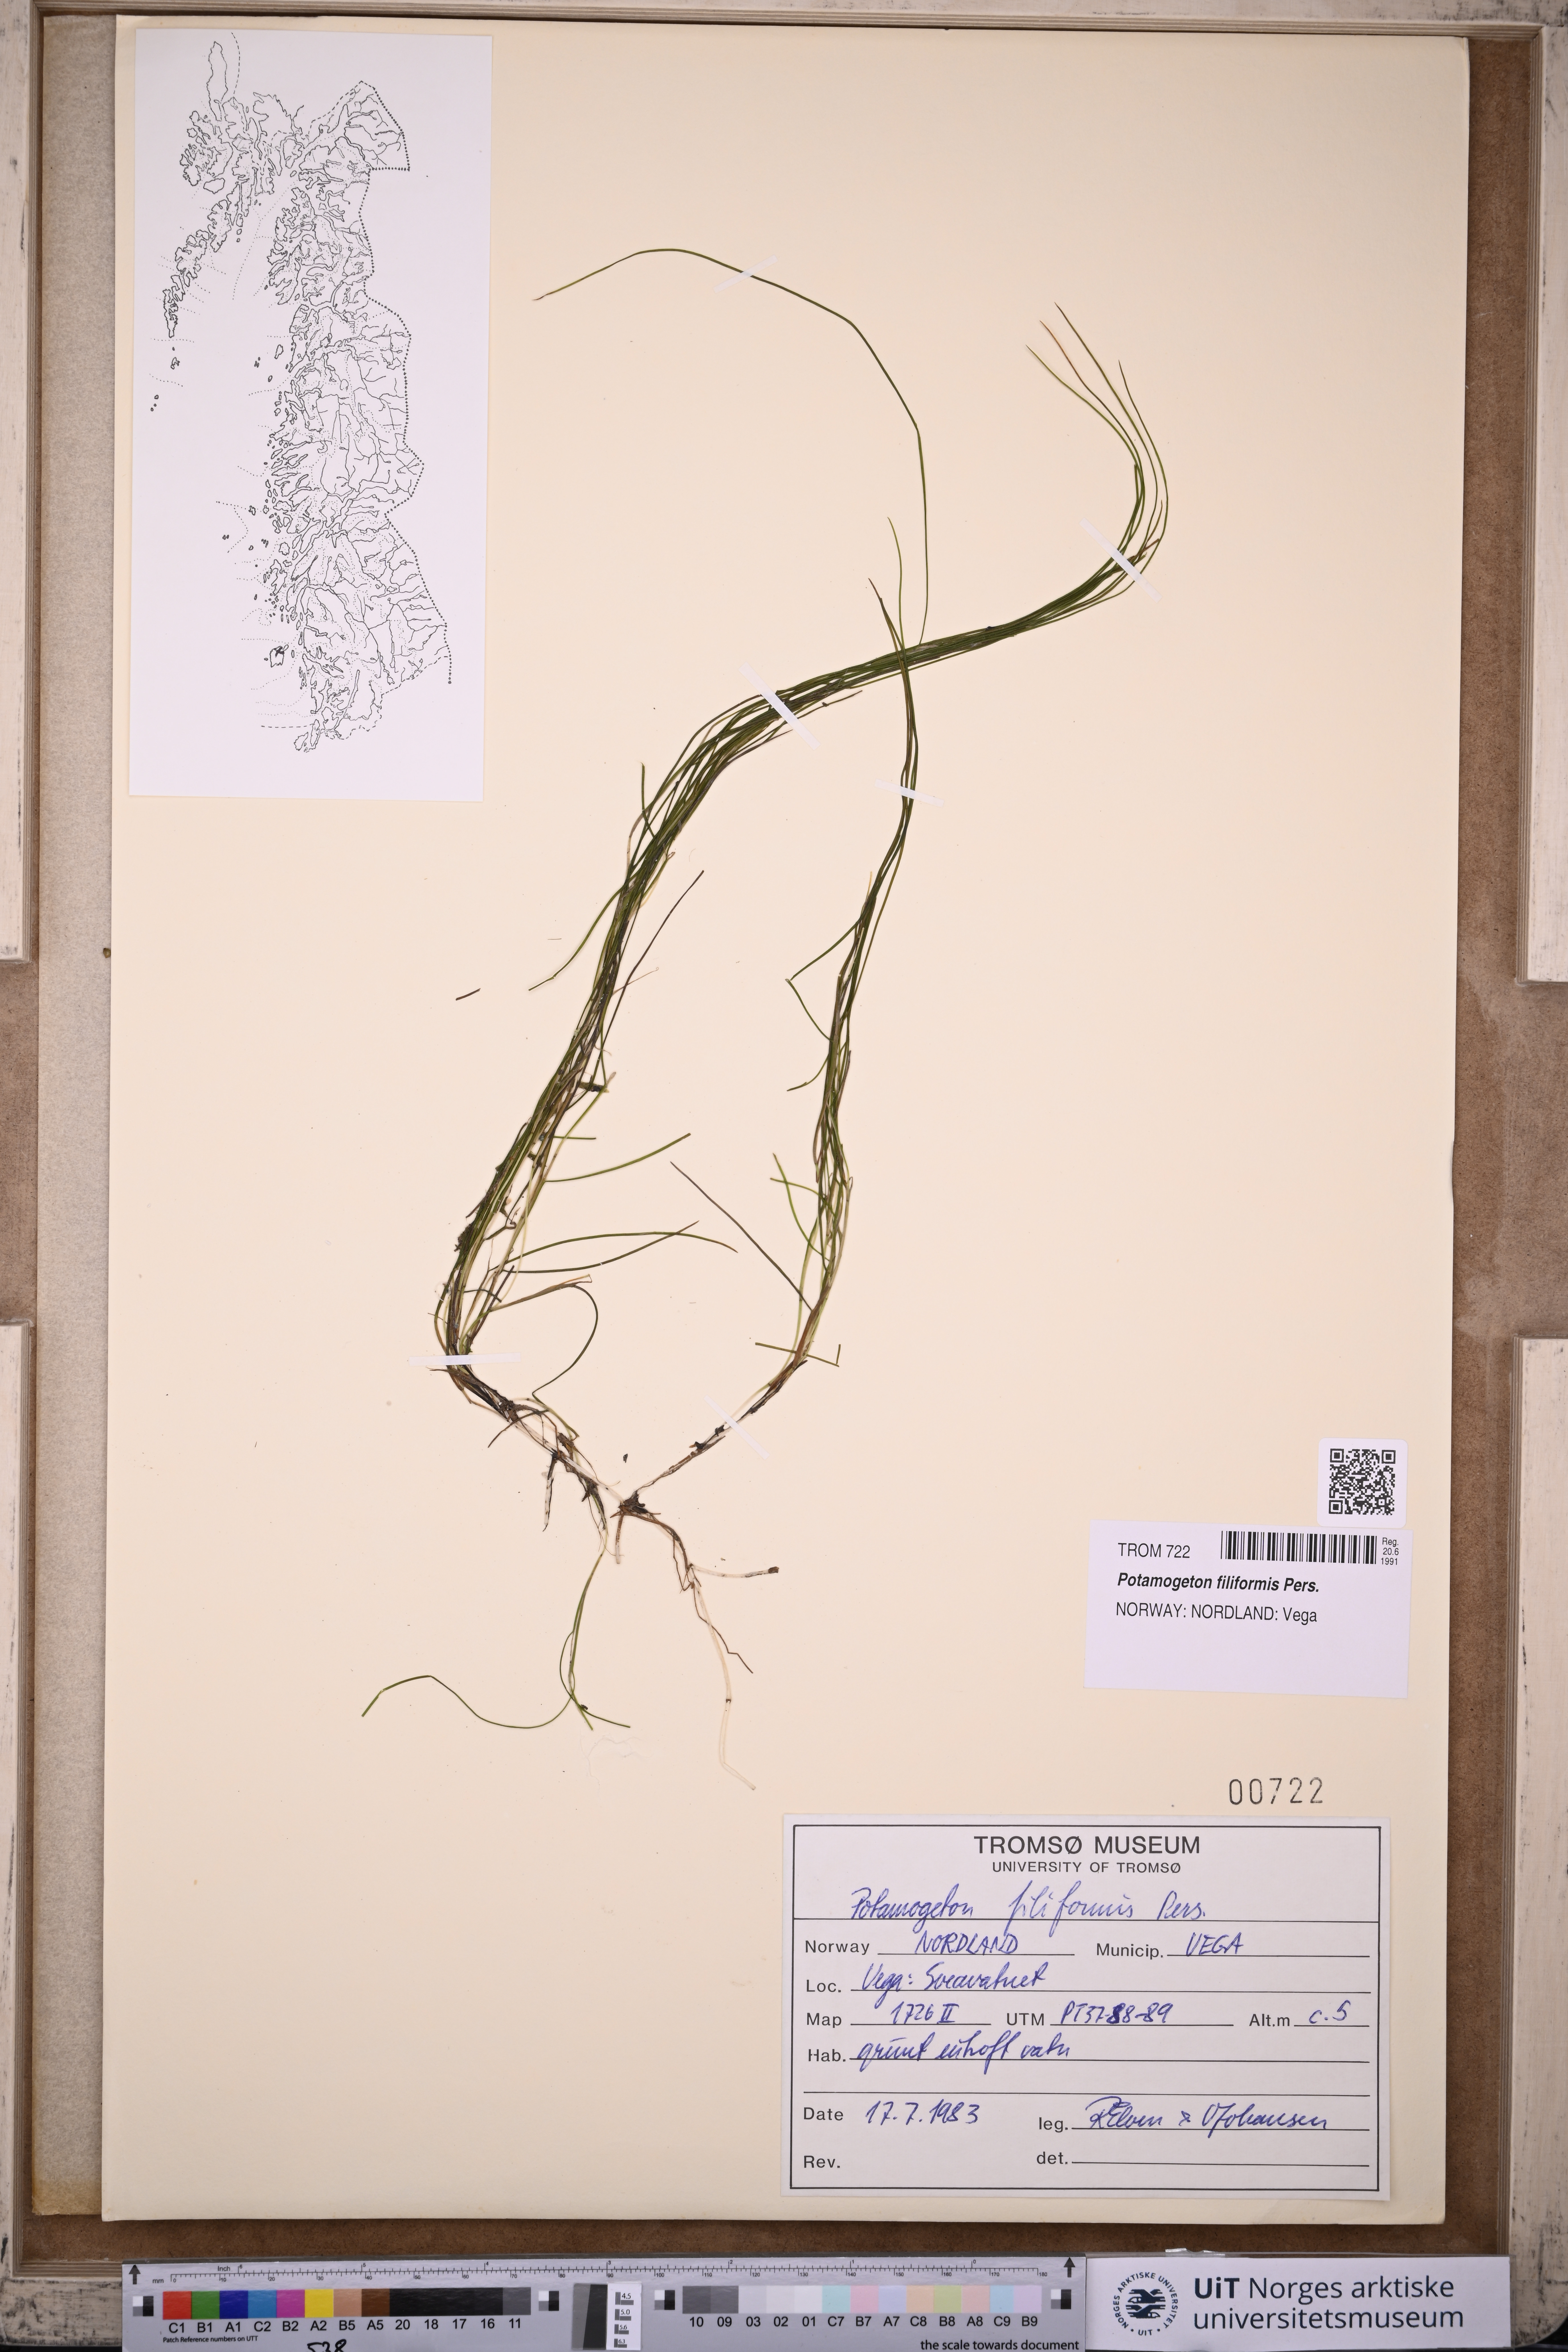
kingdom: Plantae
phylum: Tracheophyta
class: Liliopsida
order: Alismatales
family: Potamogetonaceae
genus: Stuckenia
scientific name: Stuckenia filiformis
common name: Alpine thread-leaved pondweed
